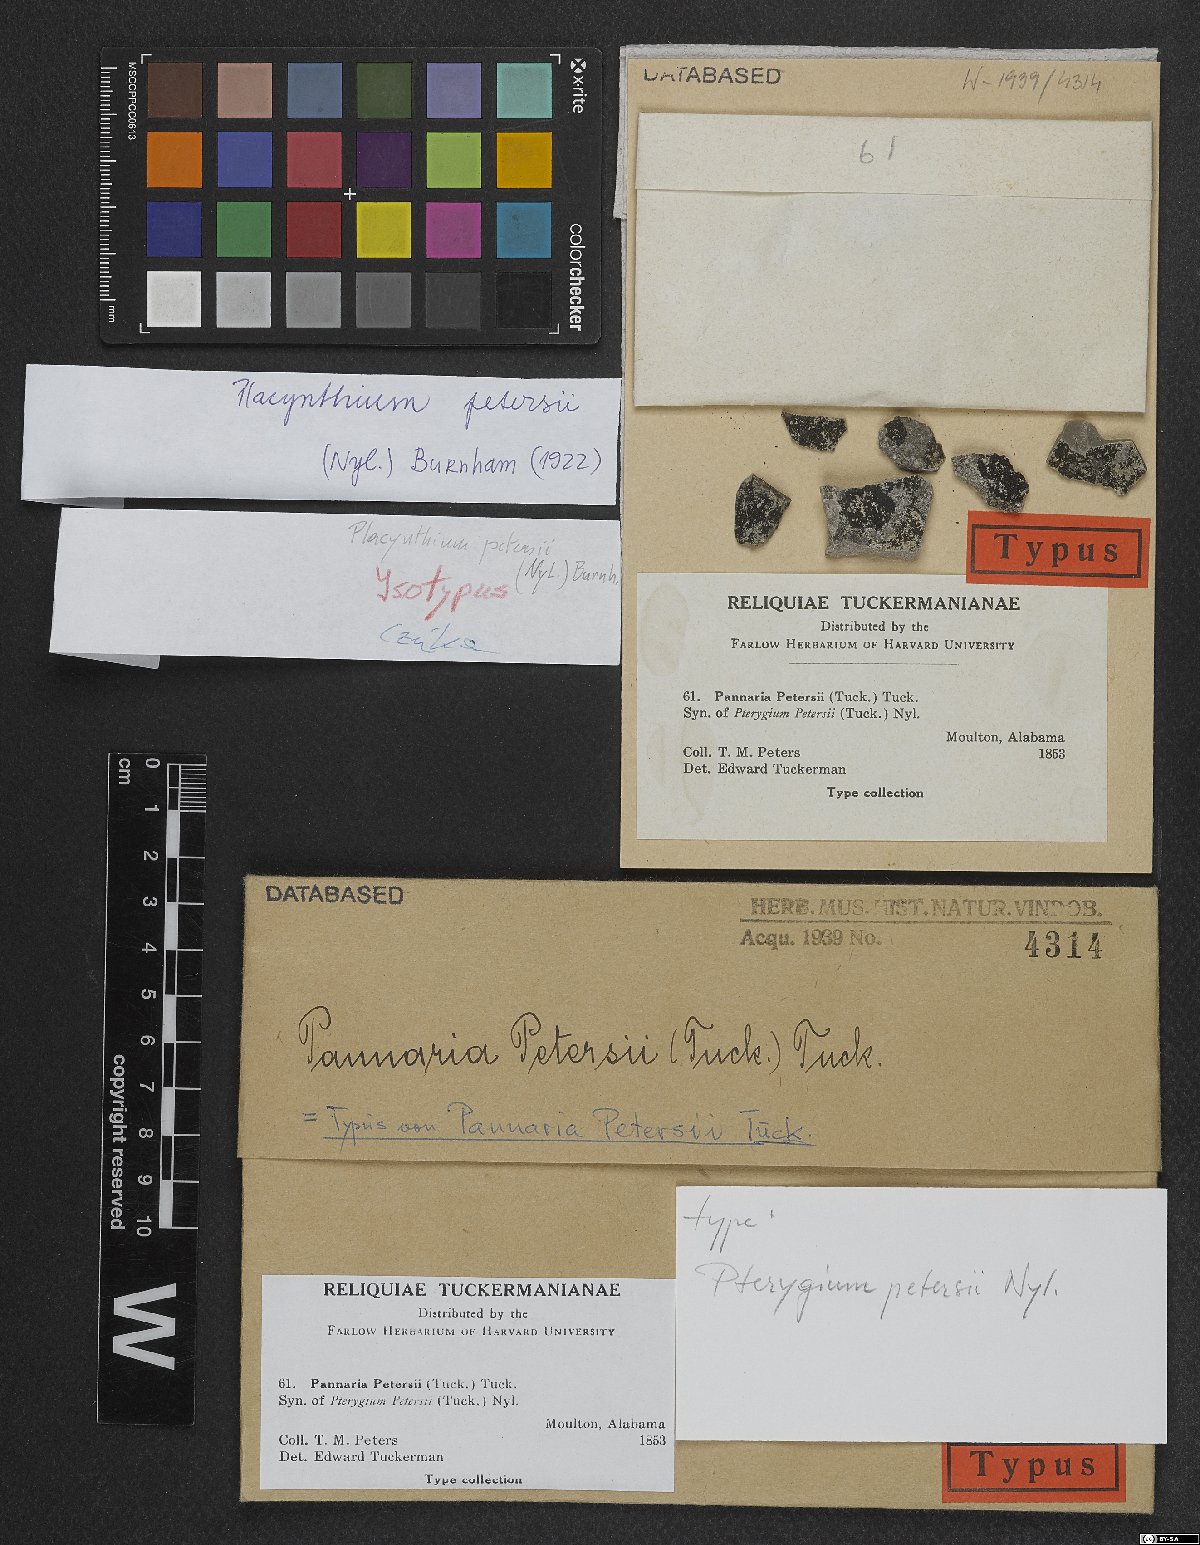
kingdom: Fungi
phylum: Ascomycota
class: Lecanoromycetes
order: Peltigerales
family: Placynthiaceae
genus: Placynthium
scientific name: Placynthium petersii
